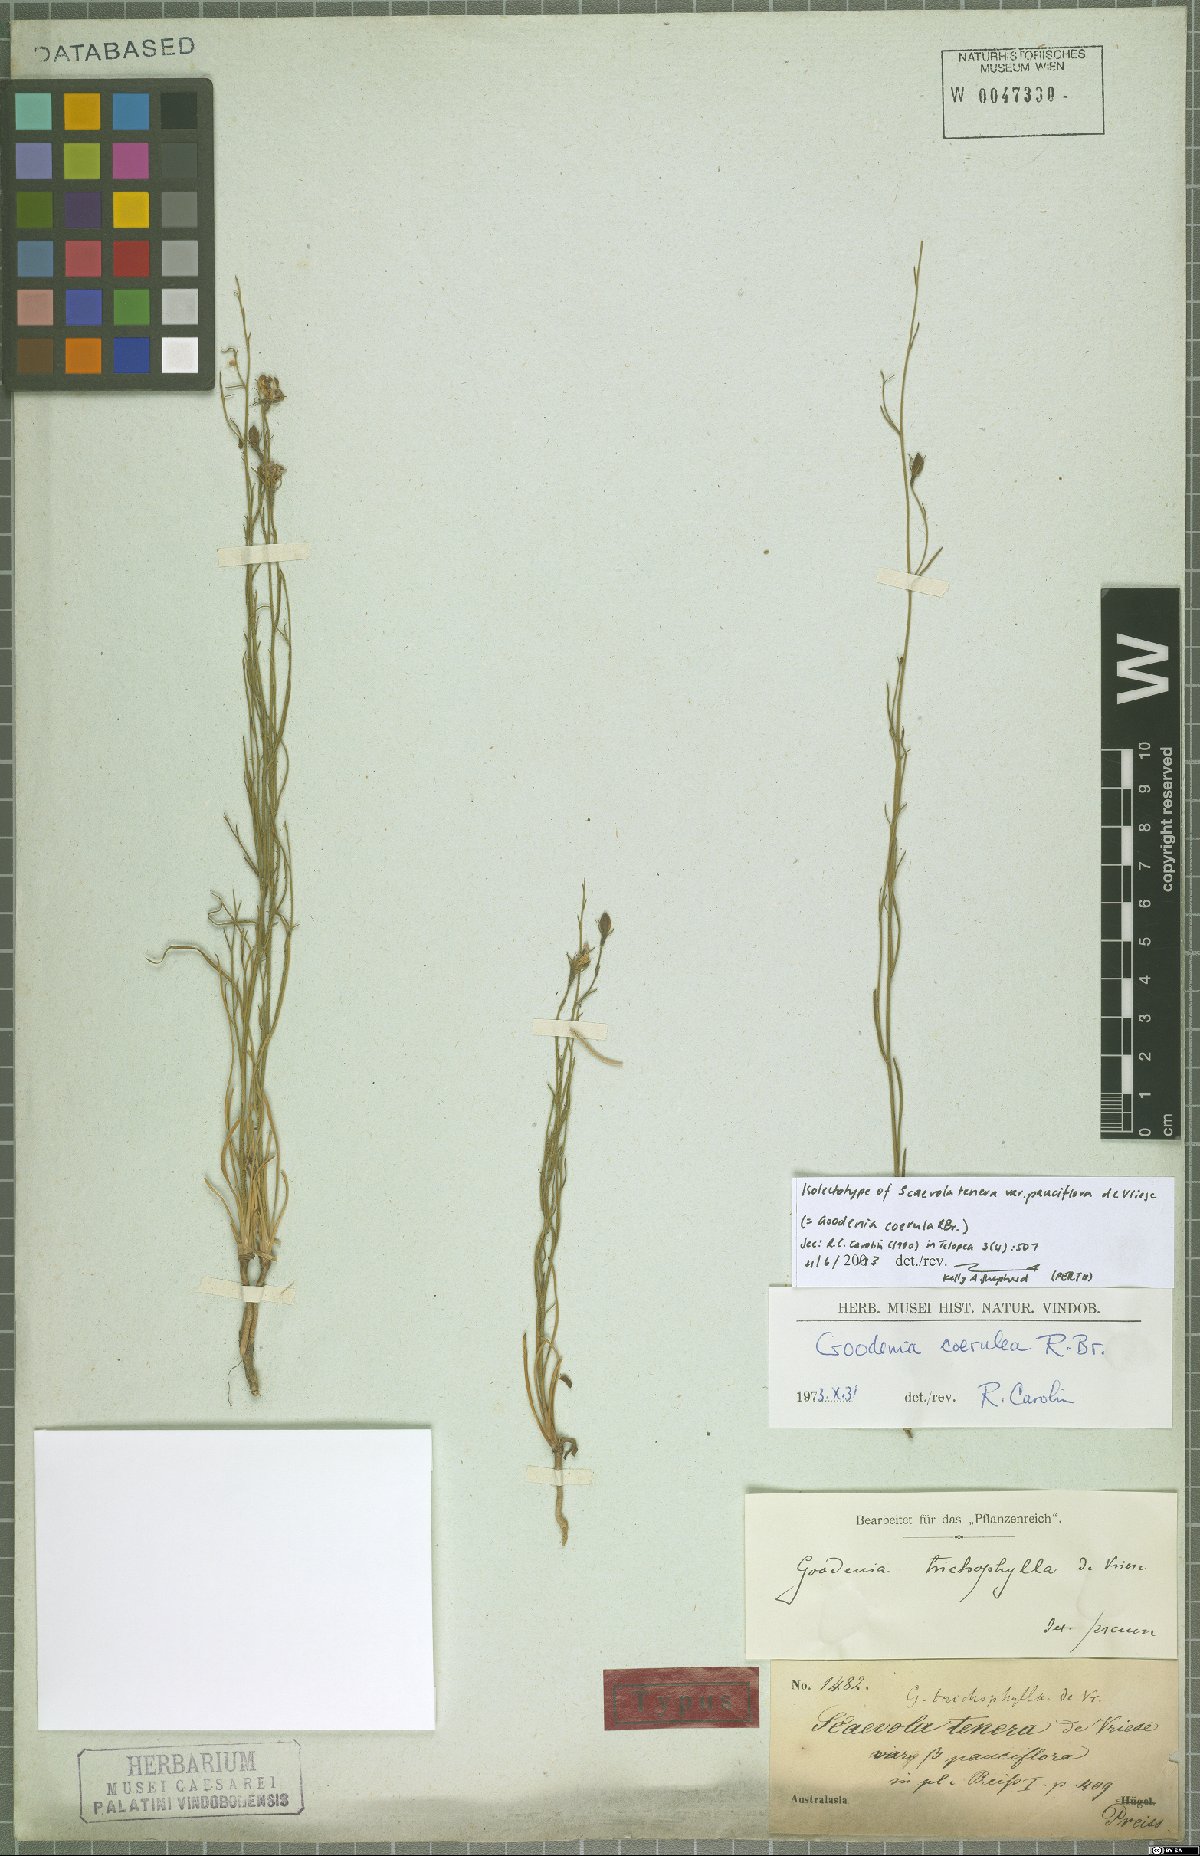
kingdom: Plantae
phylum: Tracheophyta
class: Magnoliopsida
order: Asterales
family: Goodeniaceae
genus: Goodenia
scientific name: Goodenia coerulea
